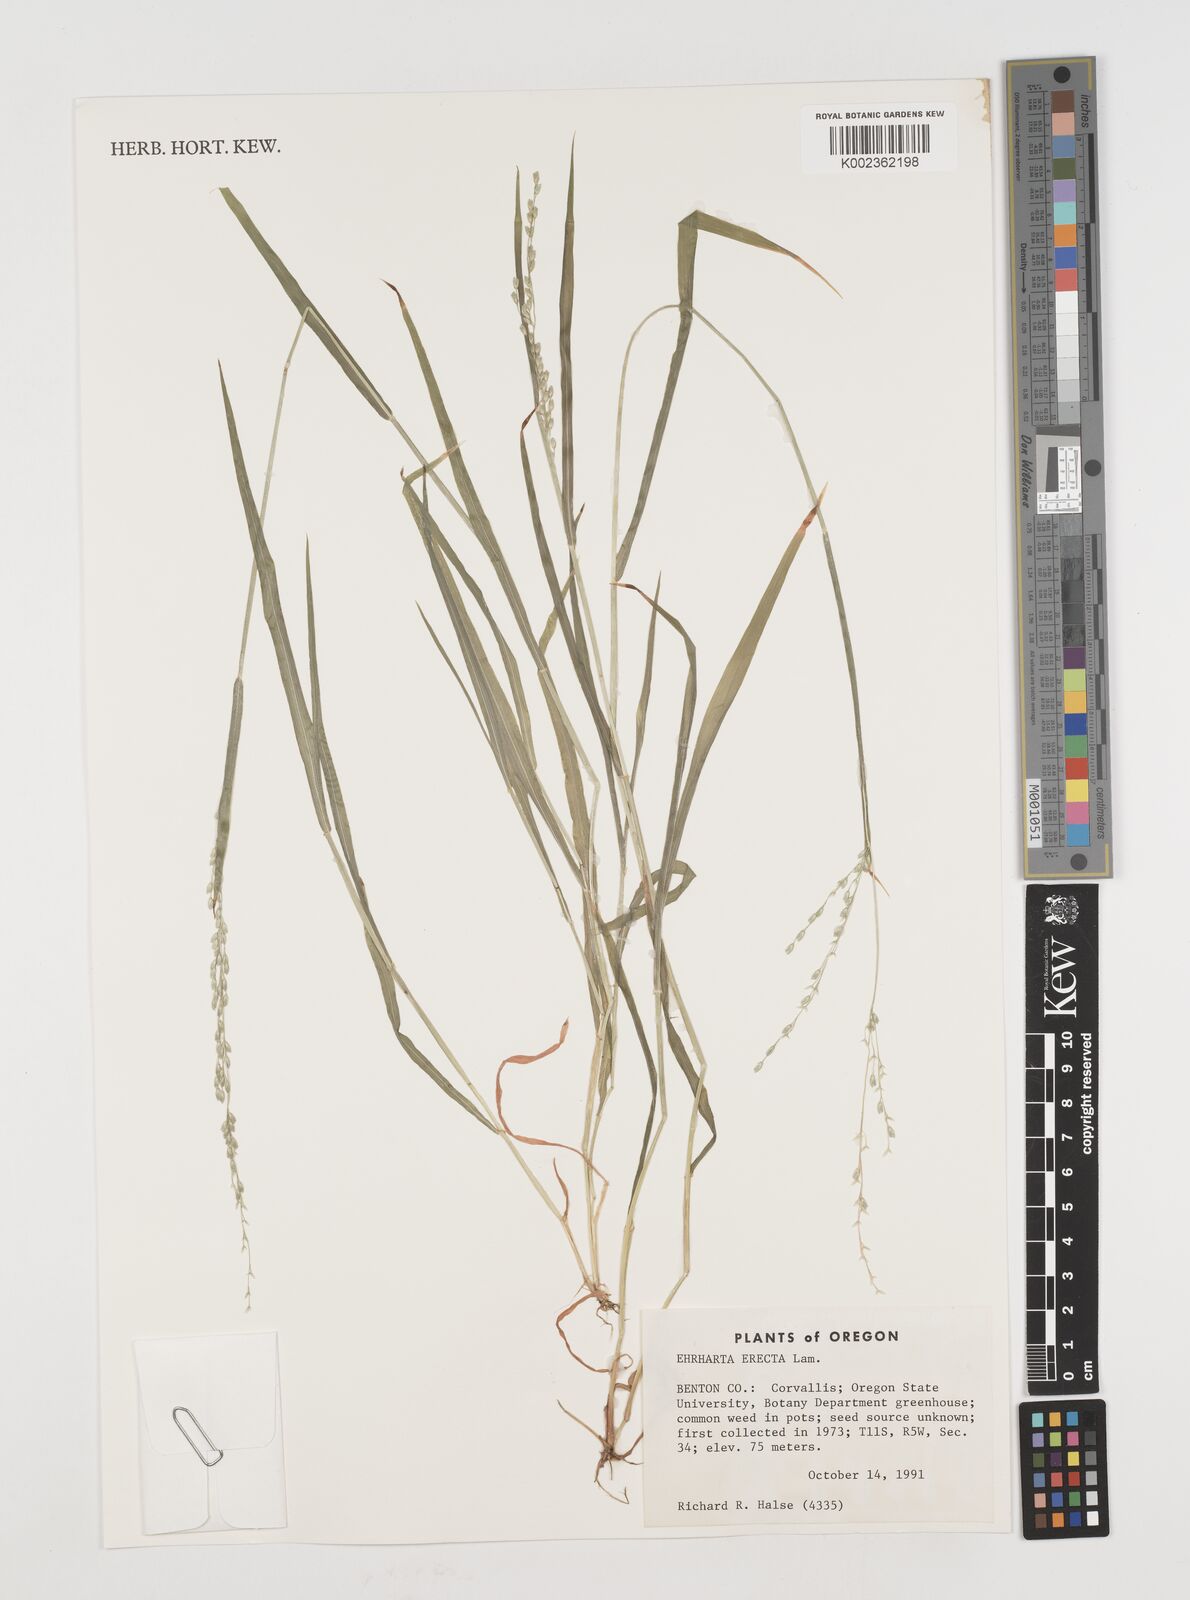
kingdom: Plantae
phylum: Tracheophyta
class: Liliopsida
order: Poales
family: Poaceae
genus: Ehrharta
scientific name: Ehrharta erecta
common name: Panic veldtgrass
